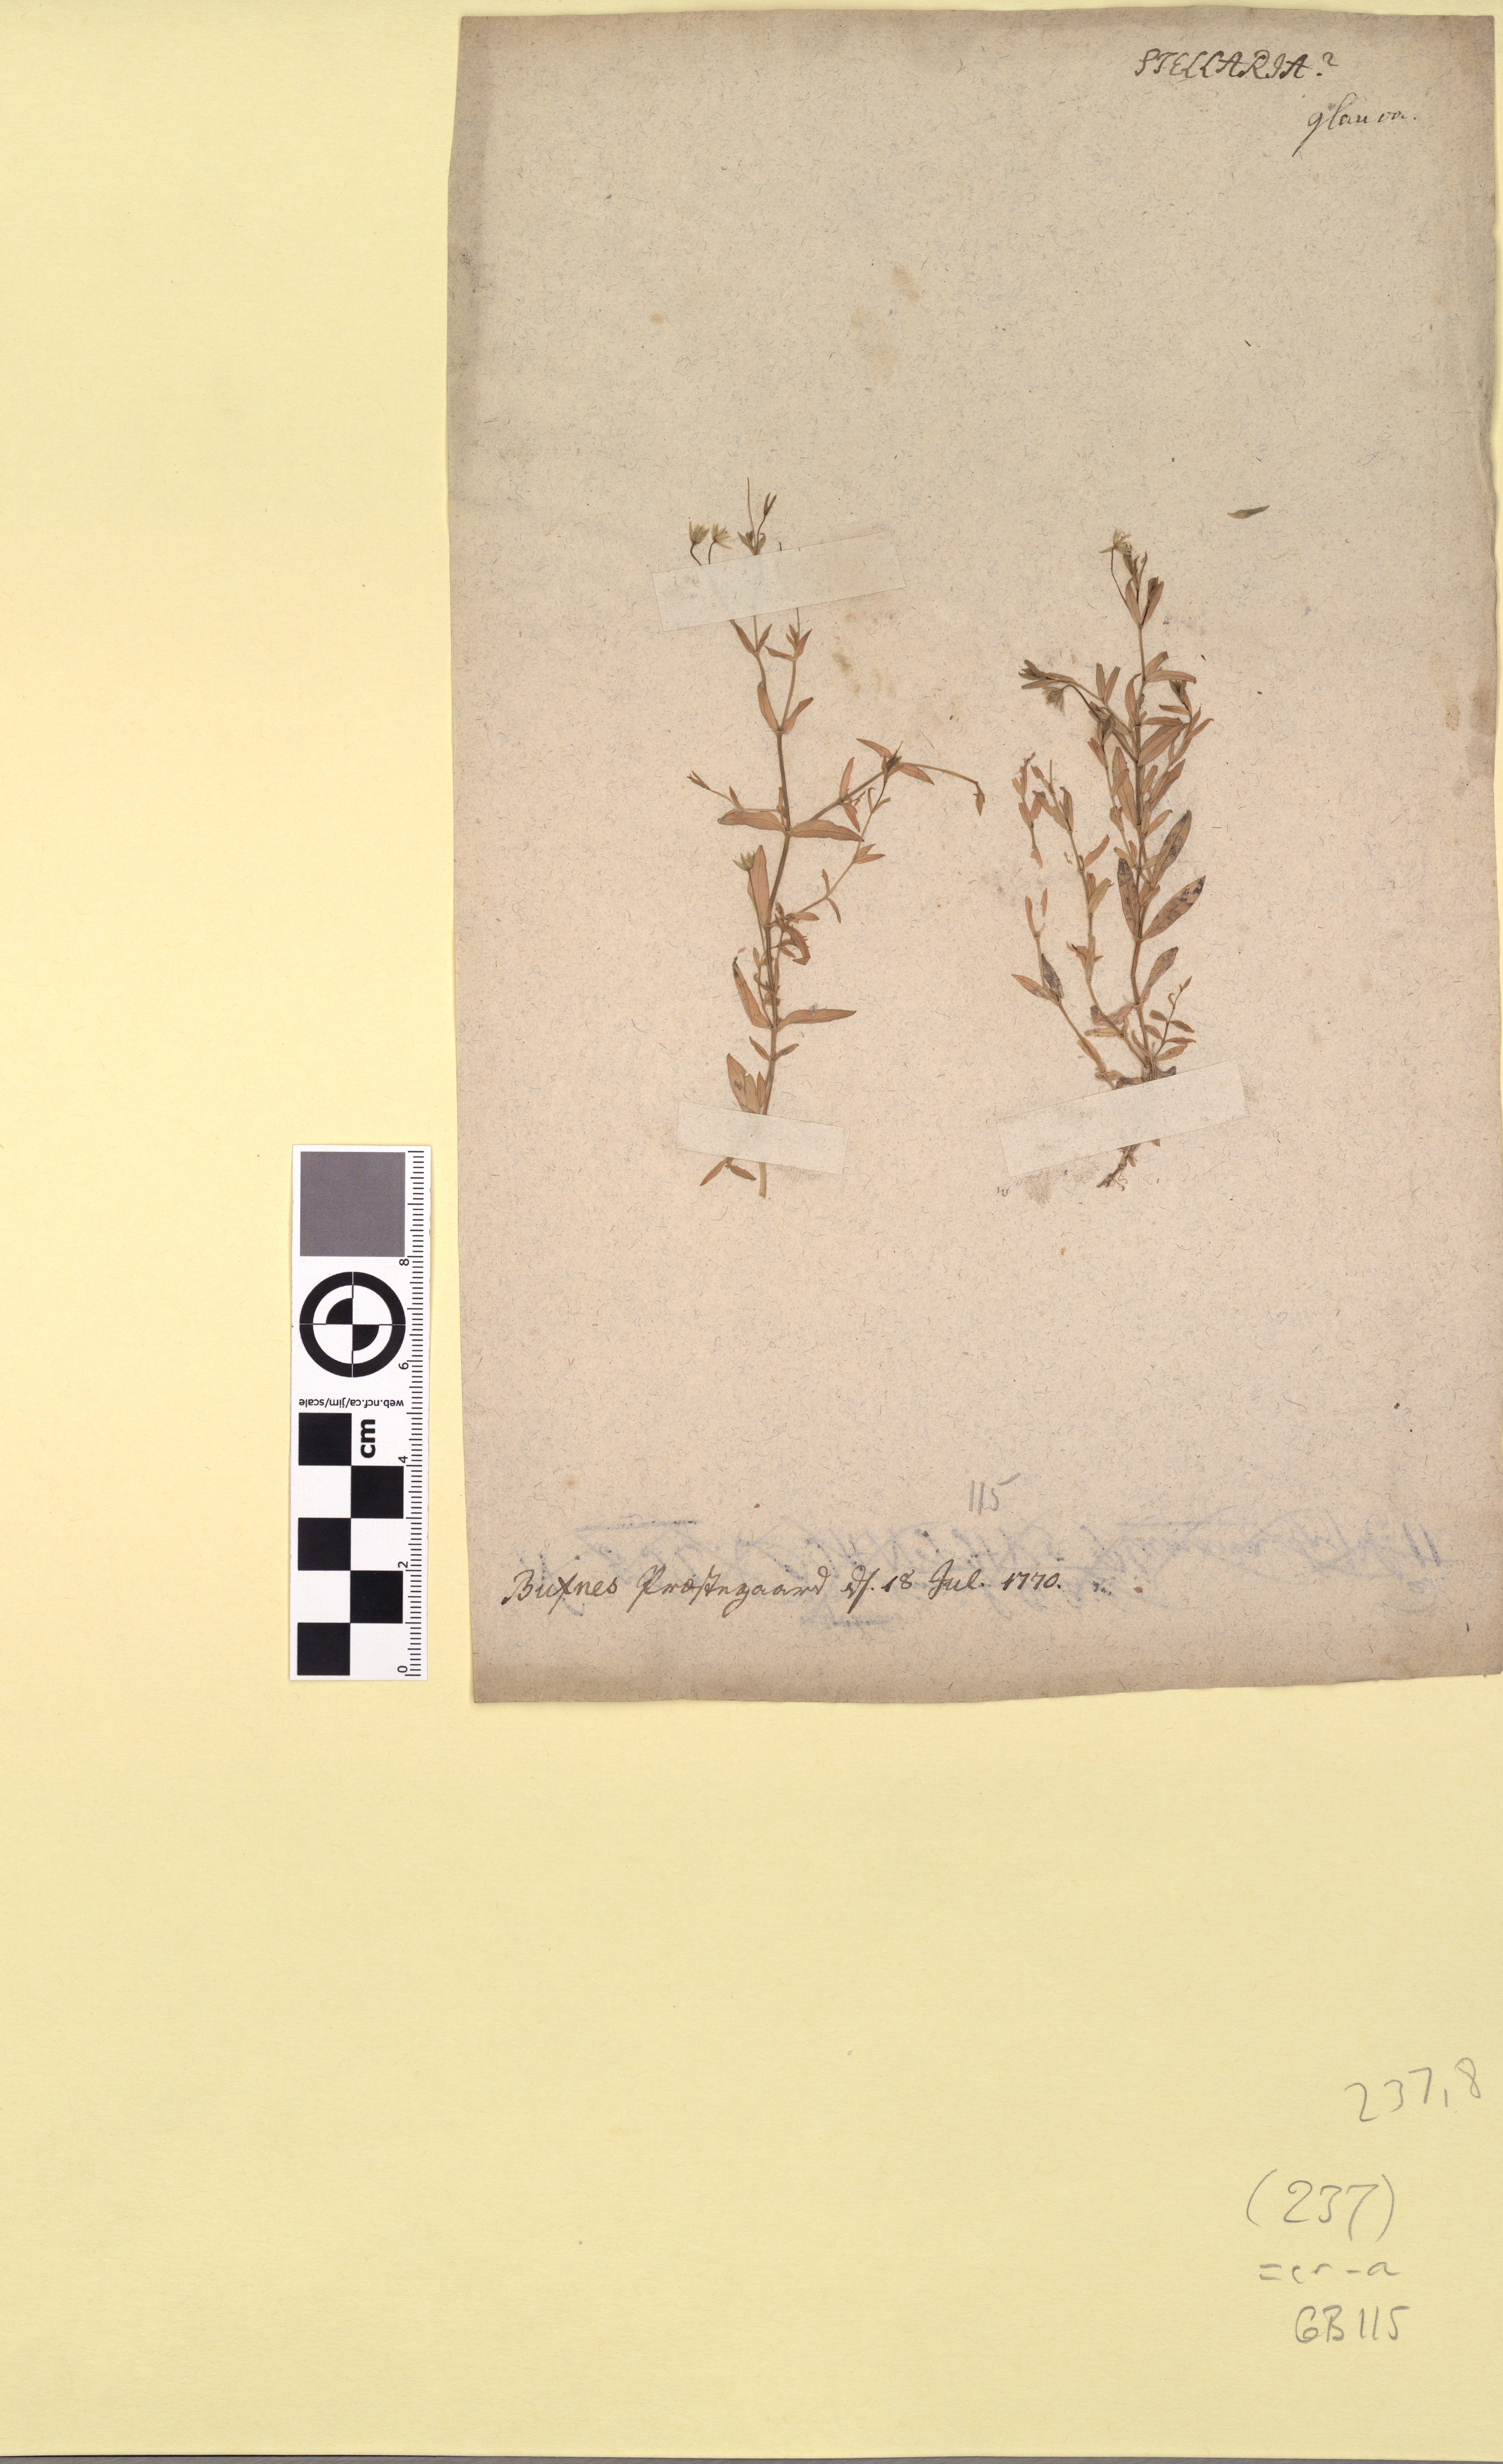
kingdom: Plantae
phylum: Tracheophyta
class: Magnoliopsida
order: Caryophyllales
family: Caryophyllaceae
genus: Stellaria
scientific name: Stellaria crassifolia
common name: Fleshy starwort
